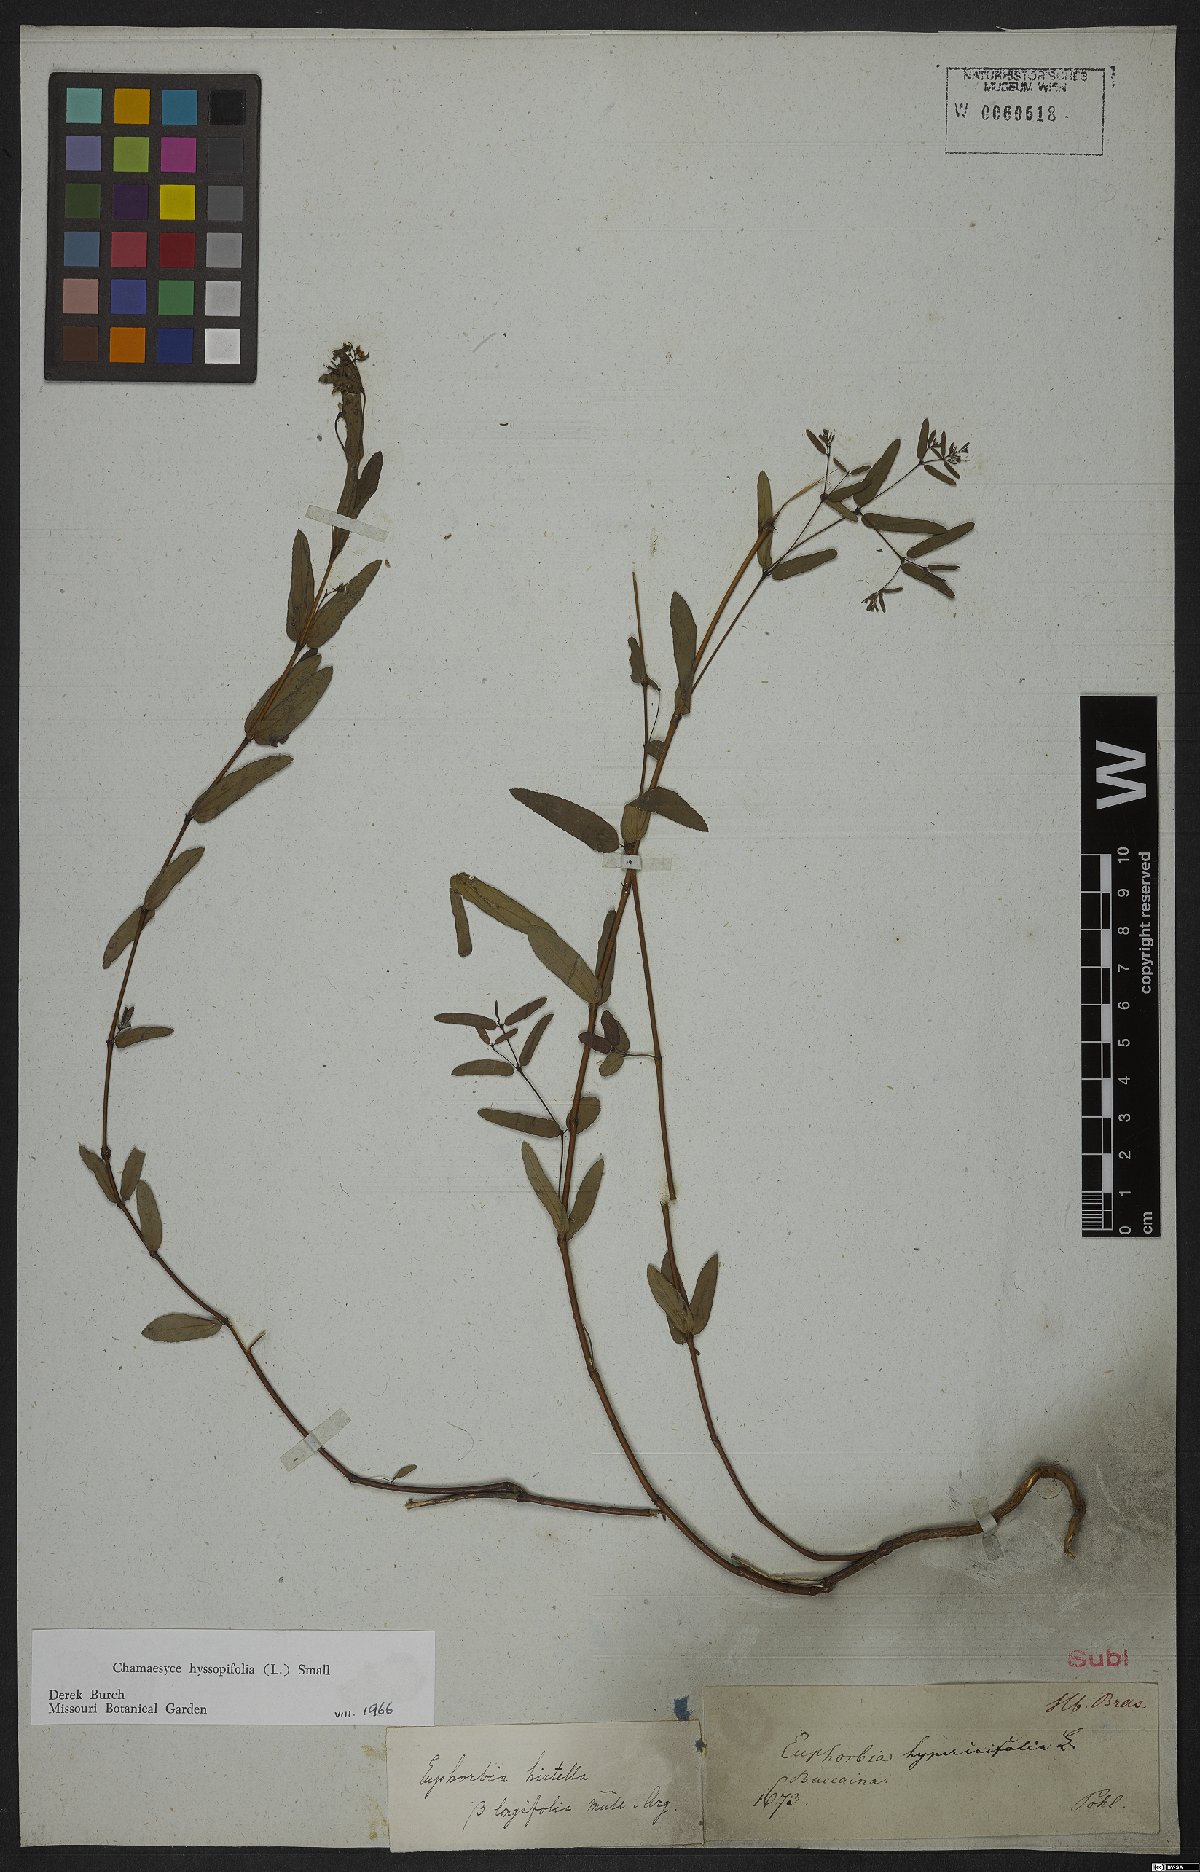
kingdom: Plantae
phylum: Tracheophyta
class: Magnoliopsida
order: Malpighiales
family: Euphorbiaceae
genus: Euphorbia
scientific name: Euphorbia hirtella
